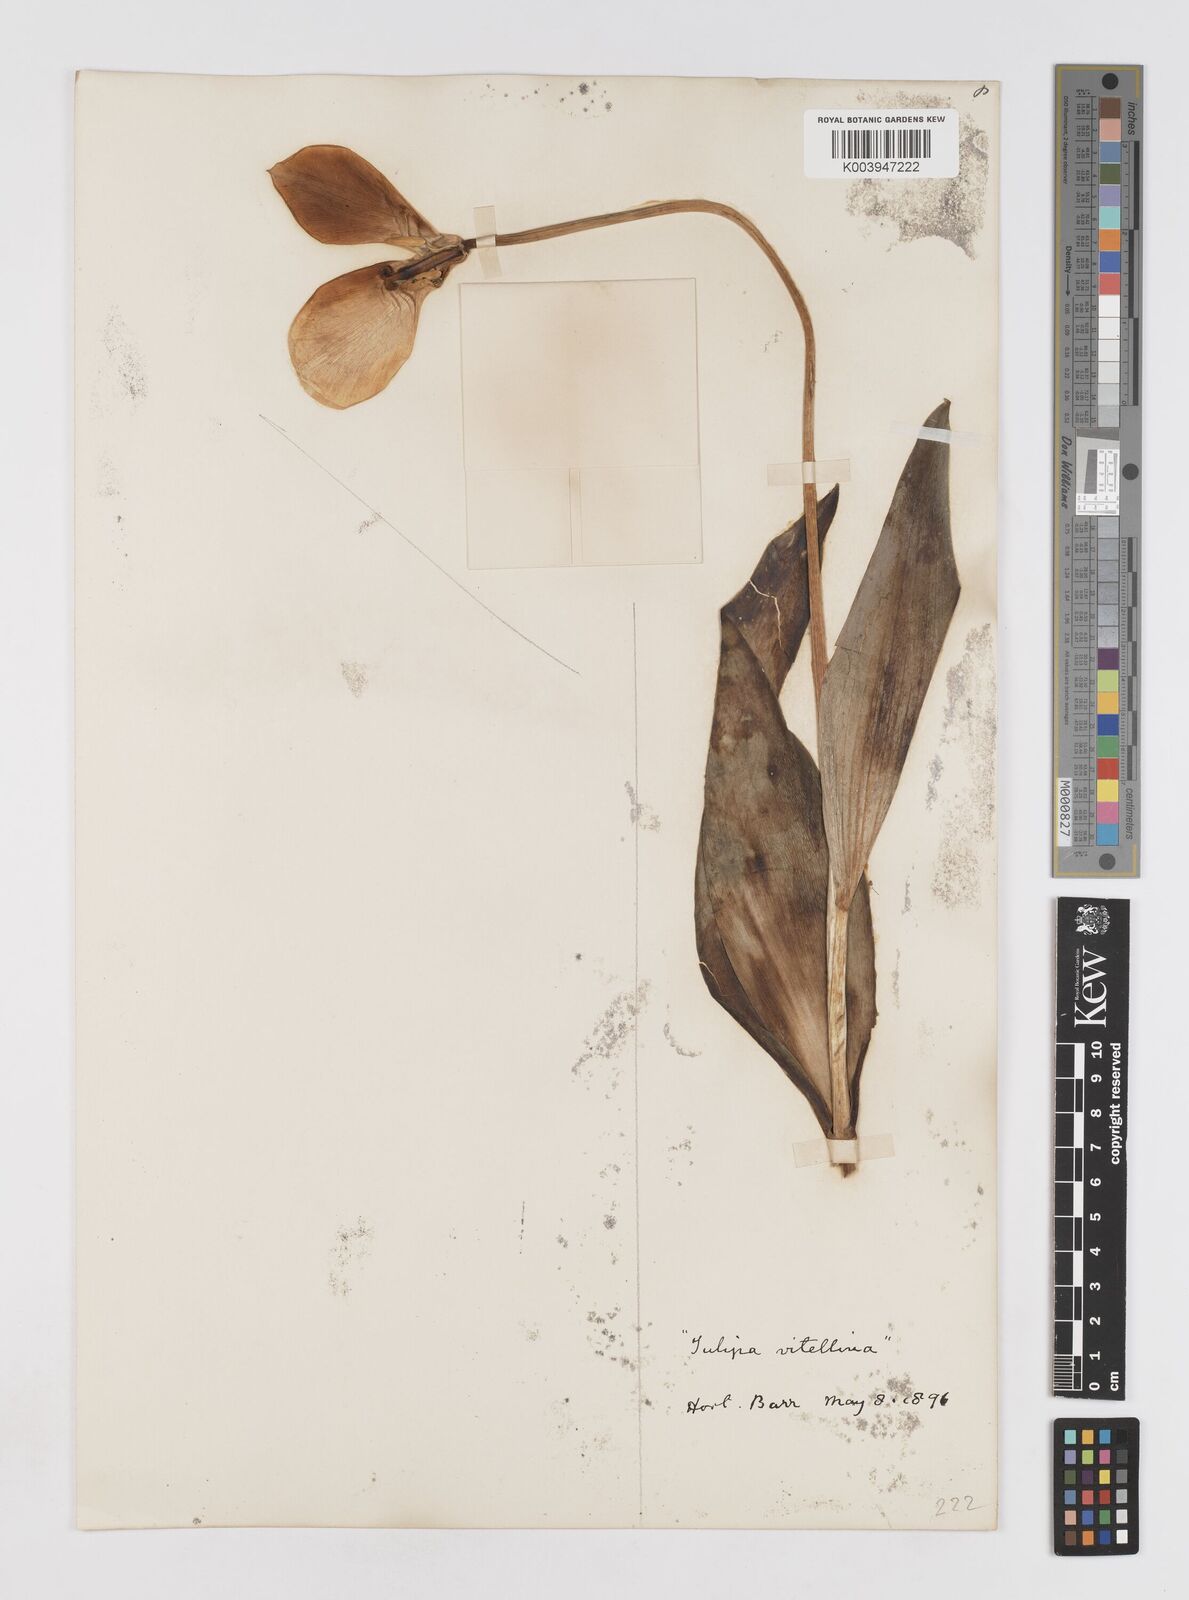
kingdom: Plantae
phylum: Tracheophyta
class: Liliopsida
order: Liliales
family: Liliaceae
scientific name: Liliaceae
